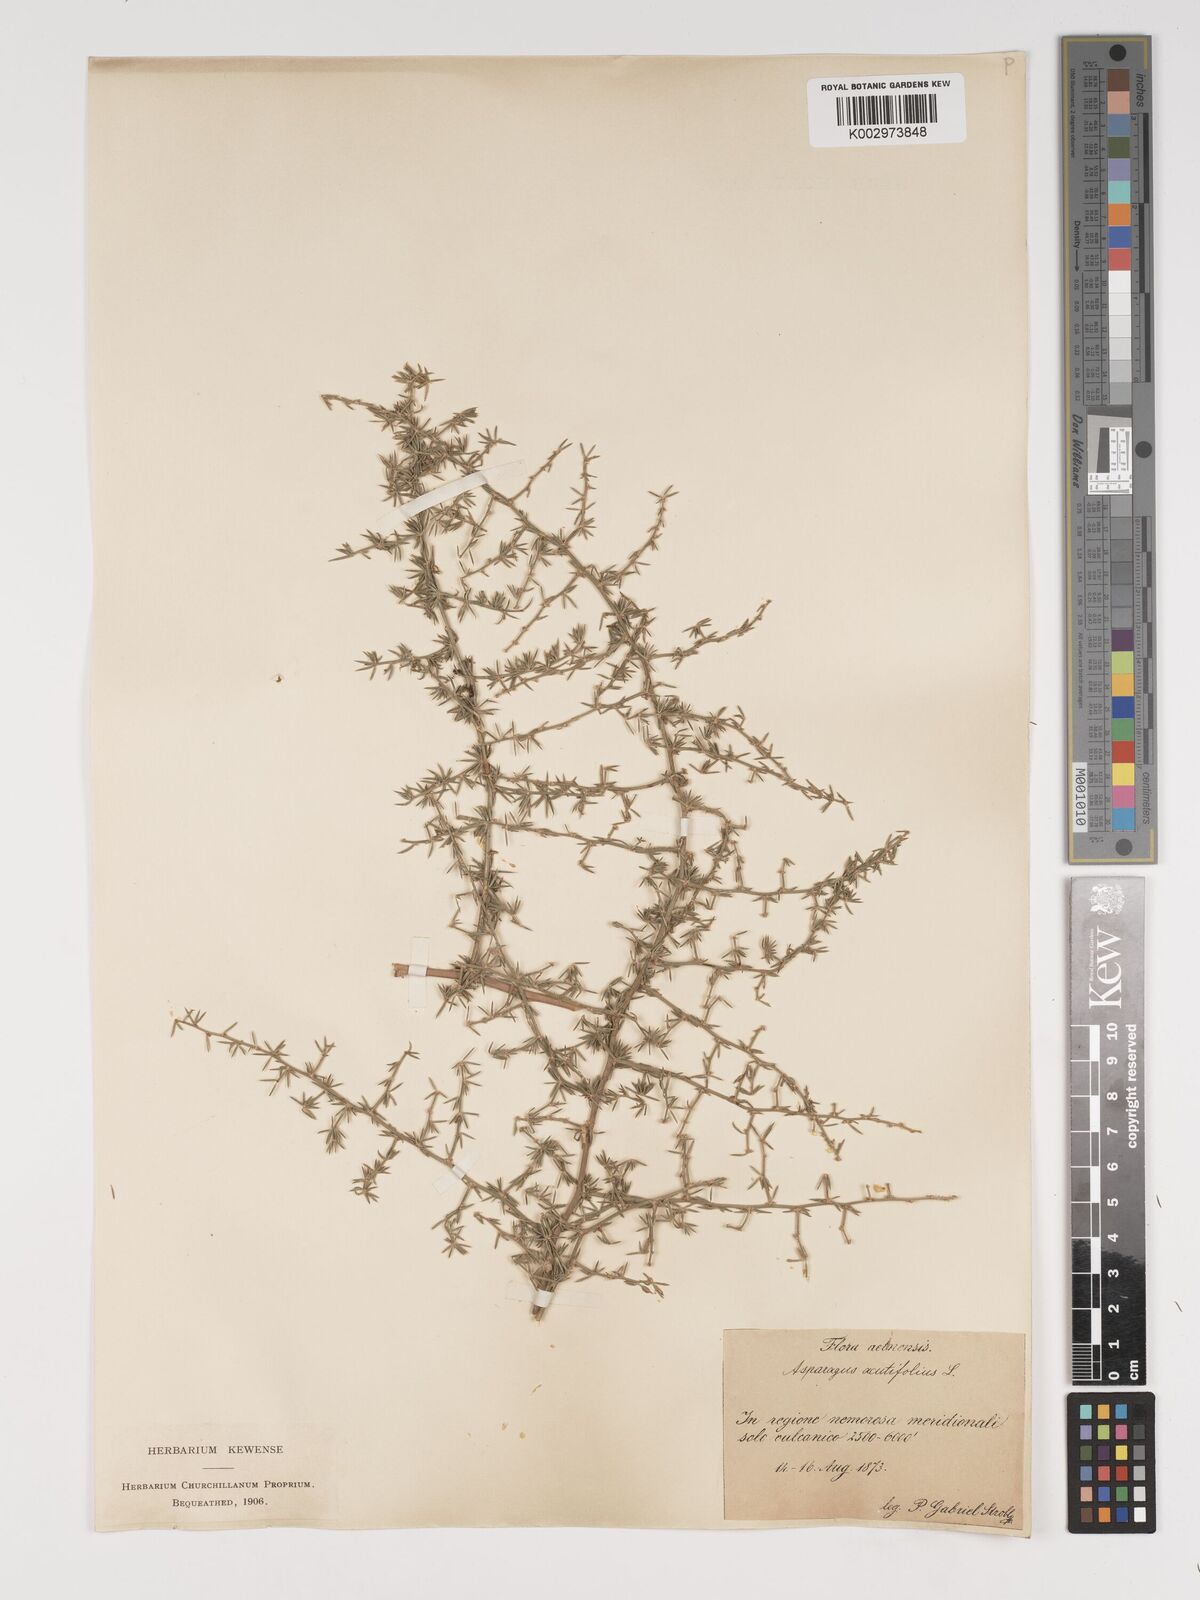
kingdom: Plantae
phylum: Tracheophyta
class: Liliopsida
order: Asparagales
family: Asparagaceae
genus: Asparagus
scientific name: Asparagus acutifolius
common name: Wild asparagus
